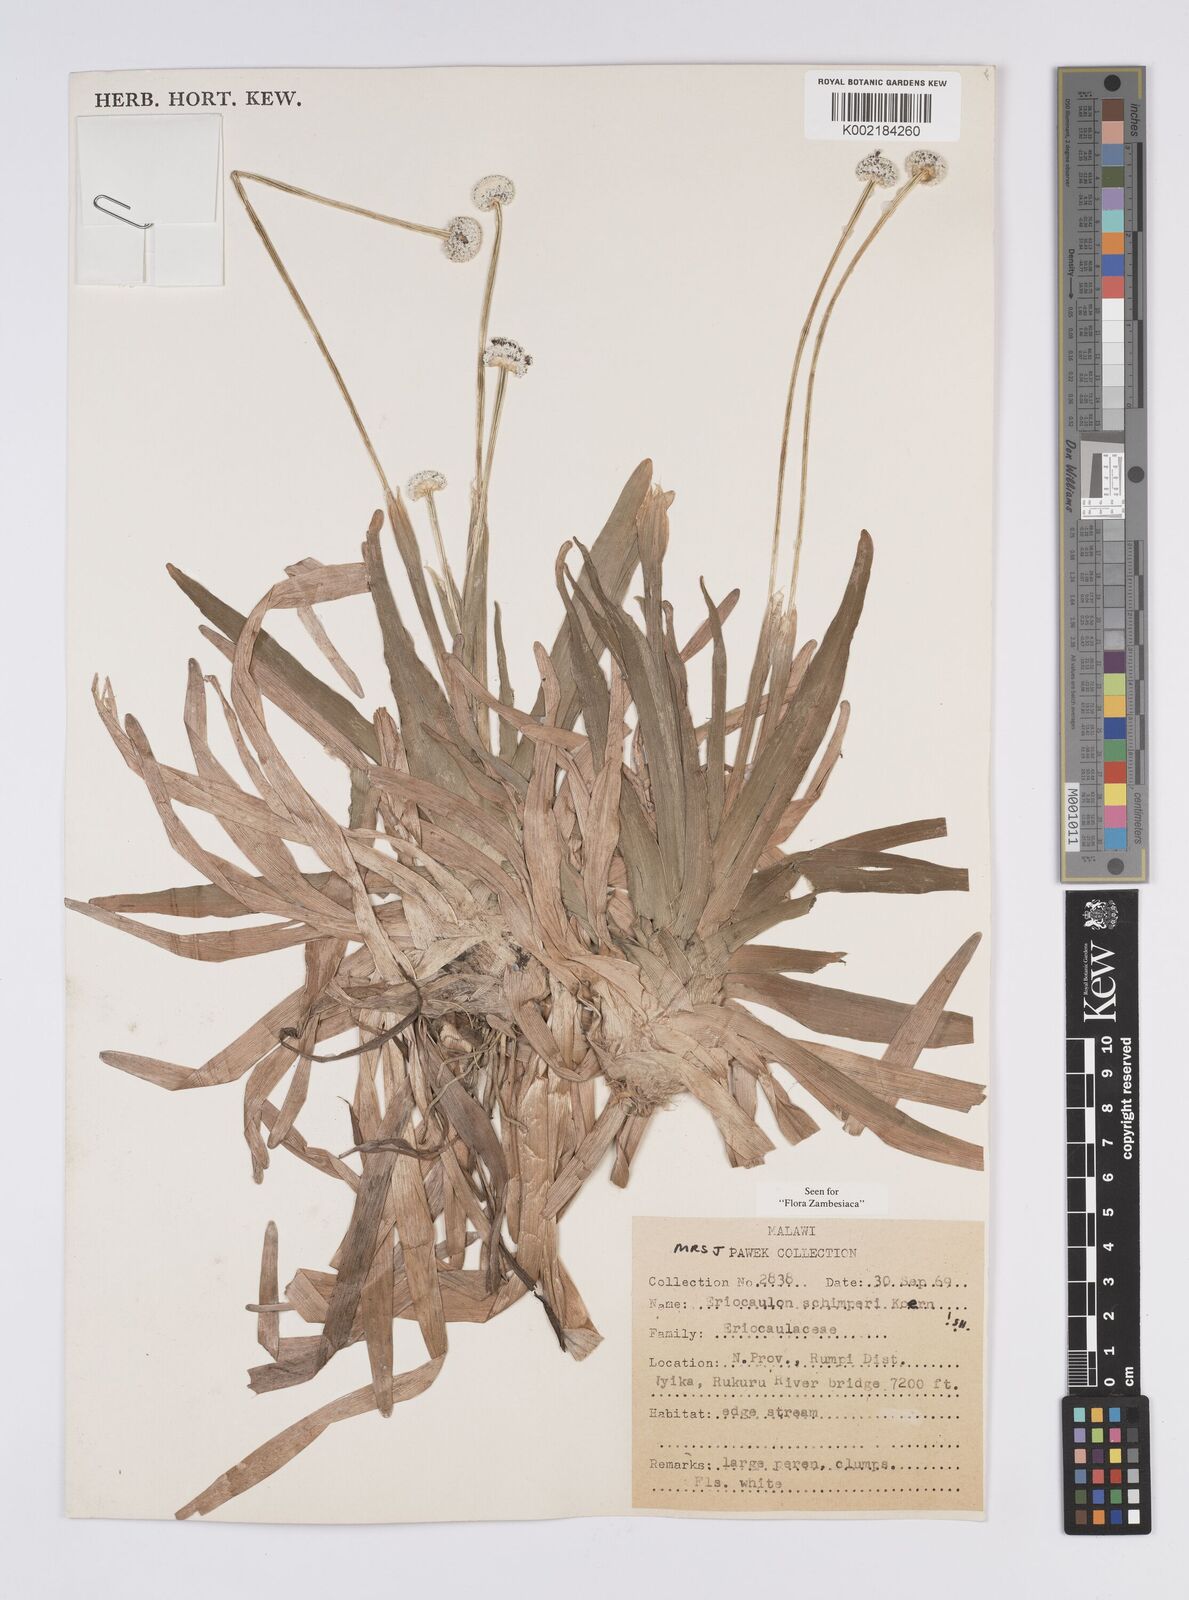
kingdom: Plantae
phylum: Tracheophyta
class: Liliopsida
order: Poales
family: Eriocaulaceae
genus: Eriocaulon
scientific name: Eriocaulon schimperi
